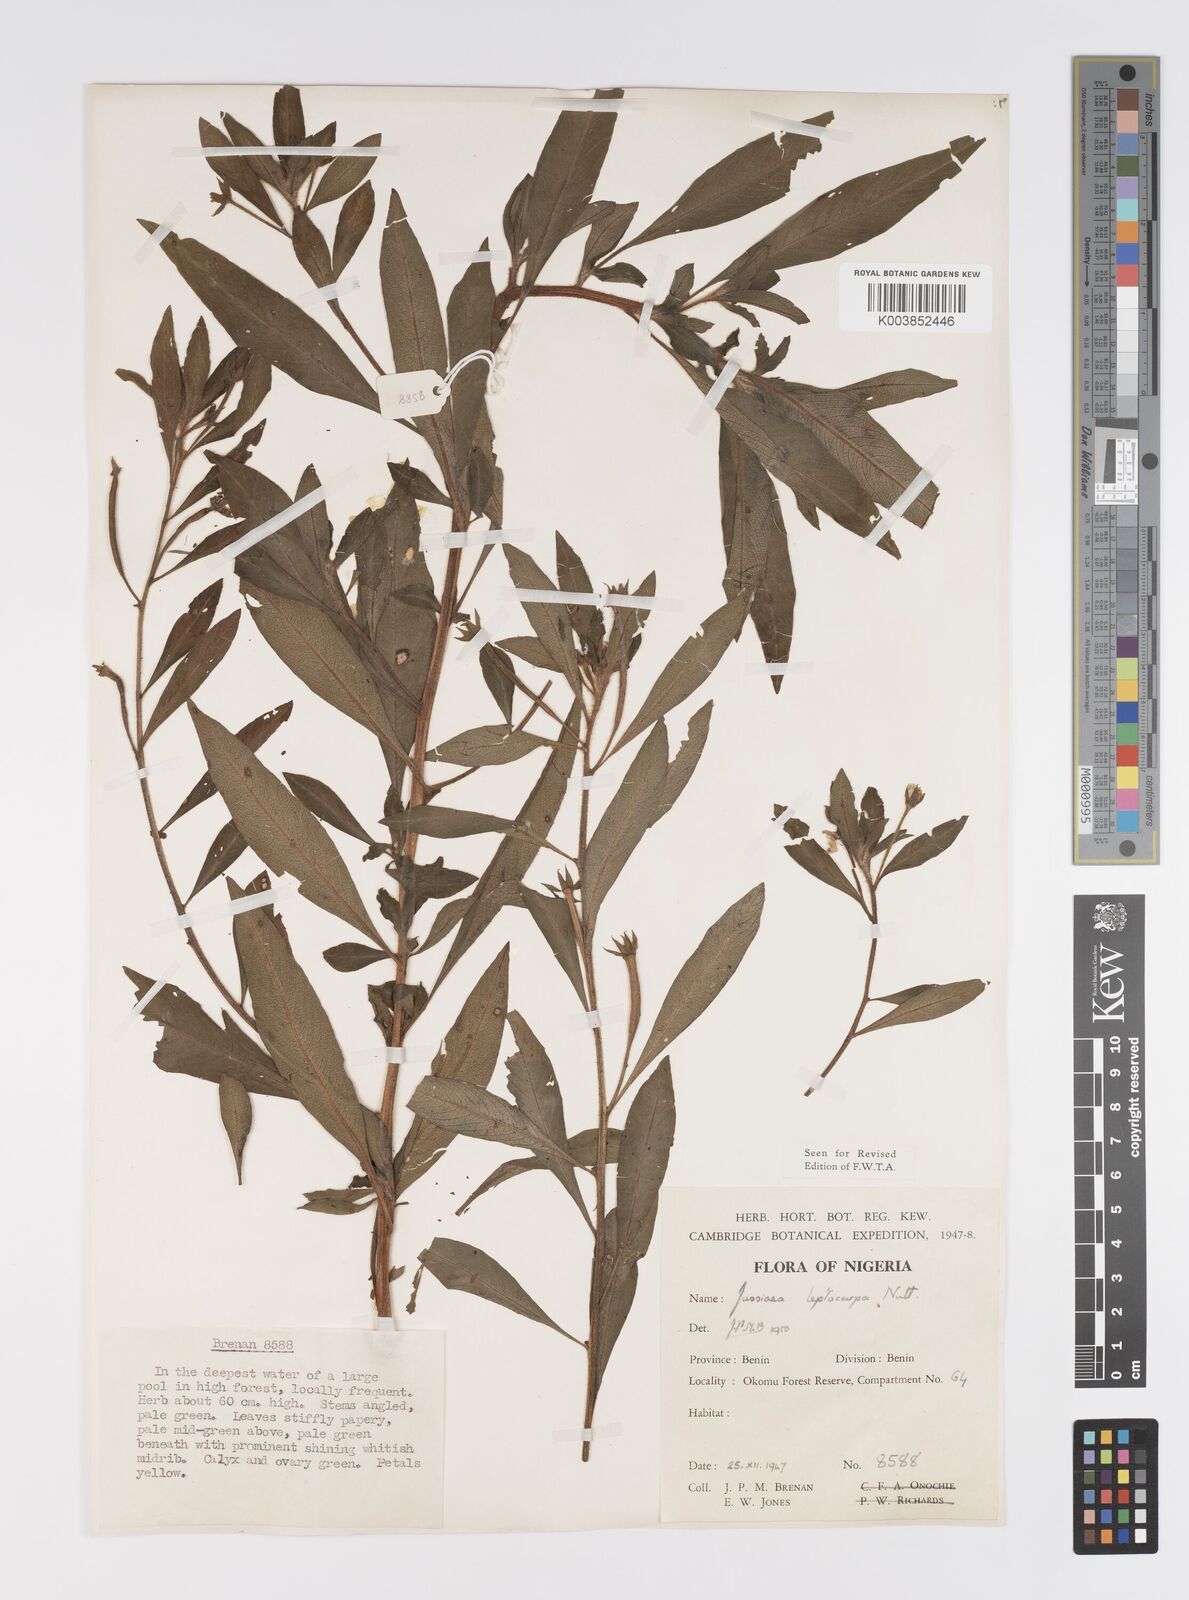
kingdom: Plantae
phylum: Tracheophyta
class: Magnoliopsida
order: Myrtales
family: Onagraceae
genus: Ludwigia
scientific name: Ludwigia leptocarpa
